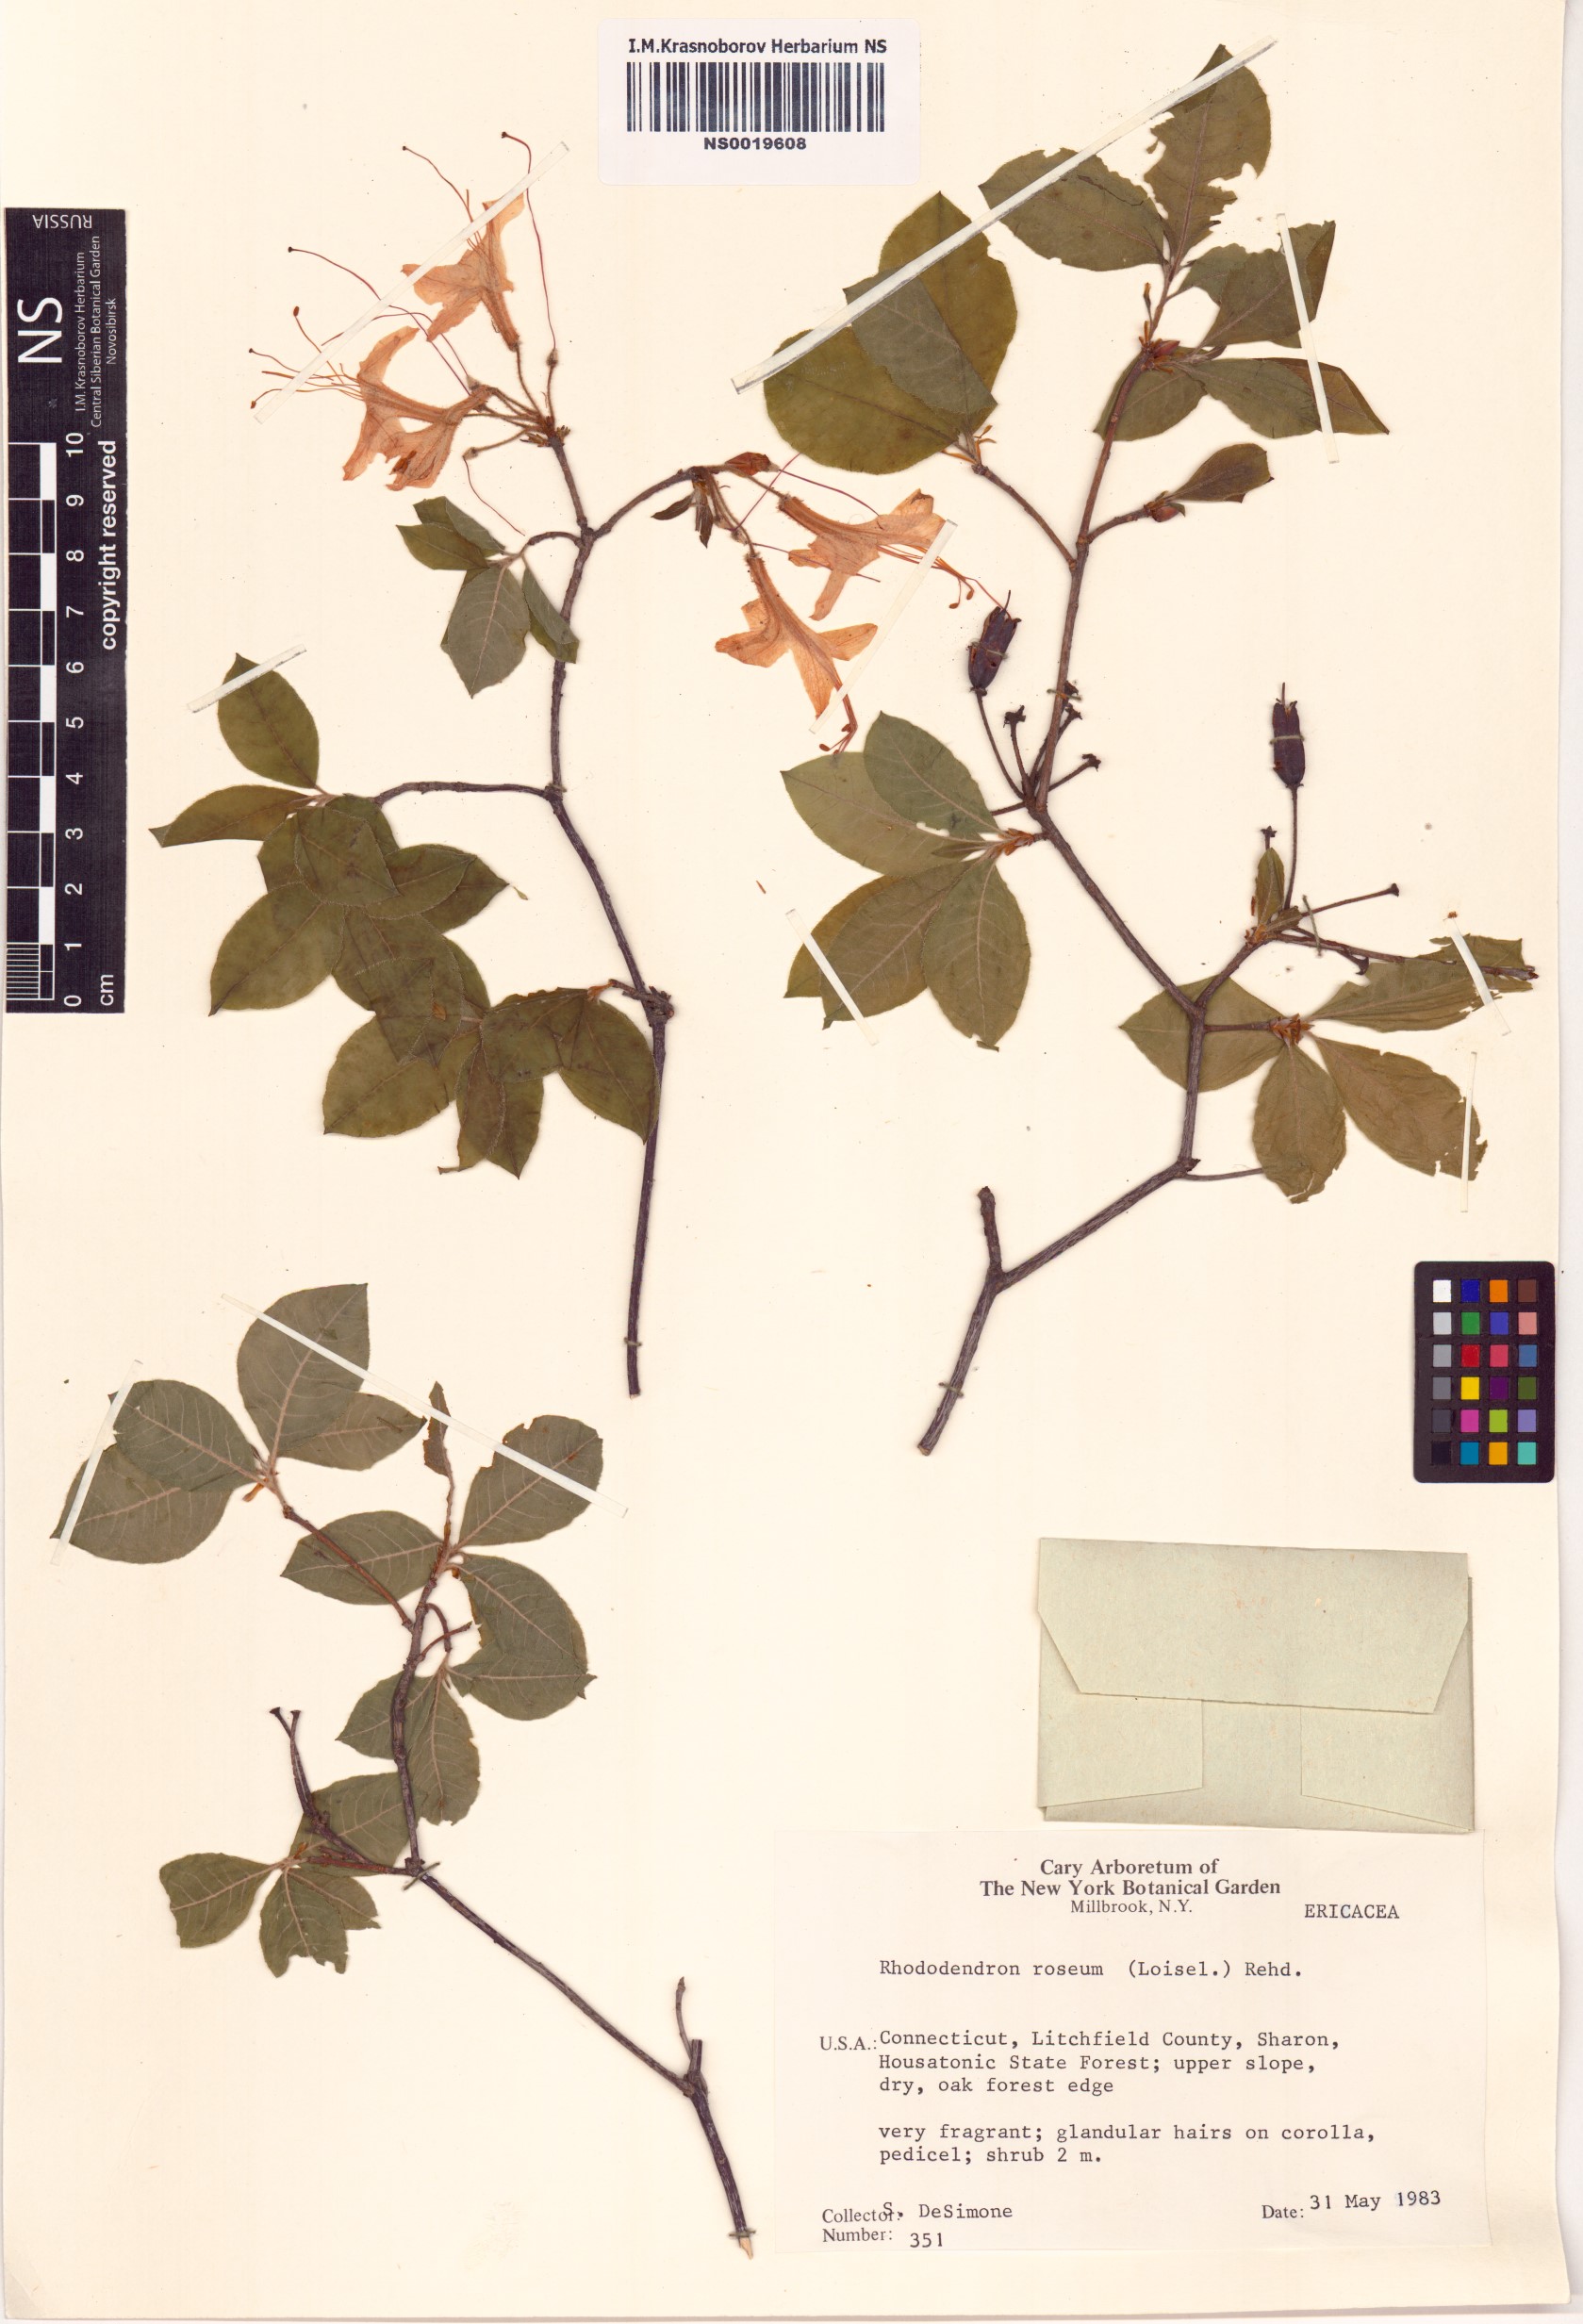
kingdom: Plantae
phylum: Tracheophyta
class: Magnoliopsida
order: Ericales
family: Ericaceae
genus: Rhododendron
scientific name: Rhododendron roseum
